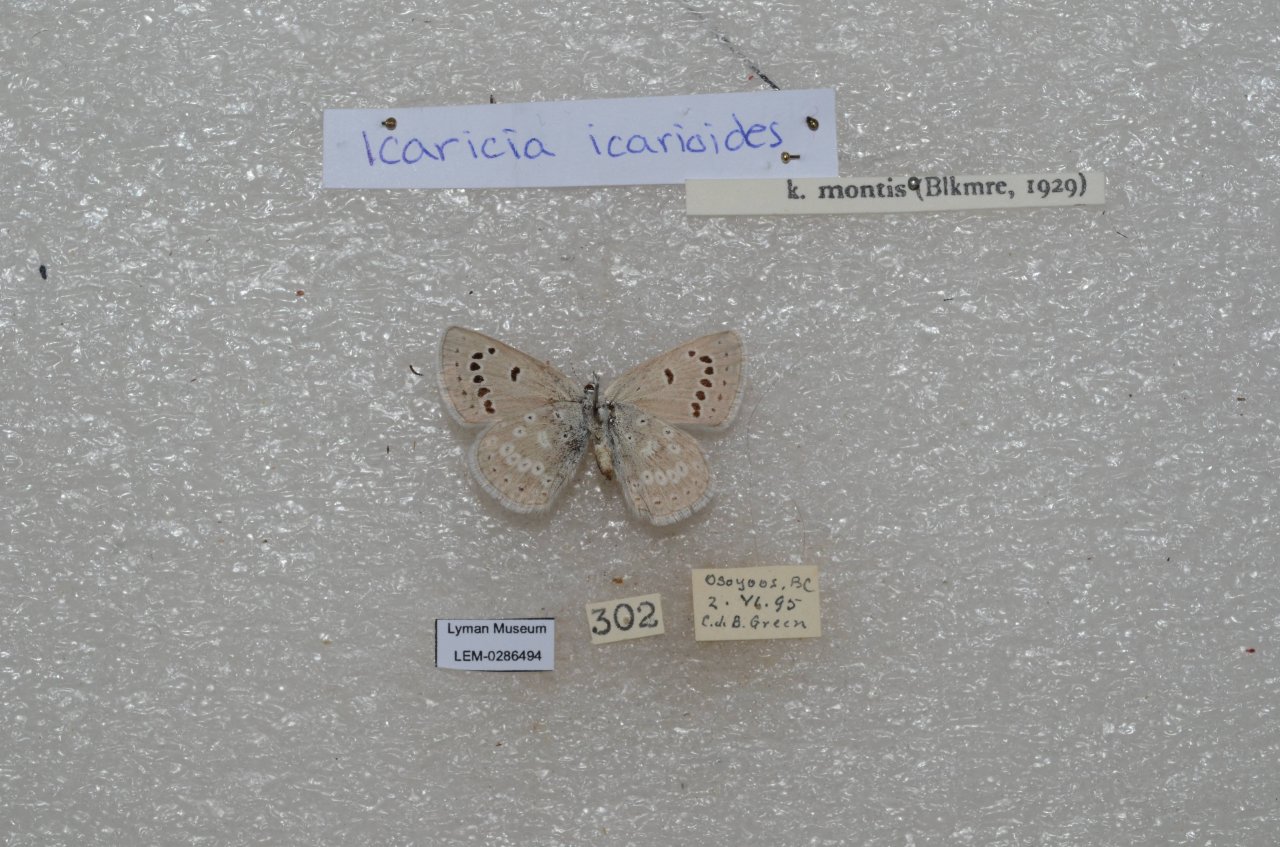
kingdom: Animalia
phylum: Arthropoda
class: Insecta
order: Lepidoptera
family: Lycaenidae
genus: Icaricia
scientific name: Icaricia icarioides
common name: Boisduval's Blue
